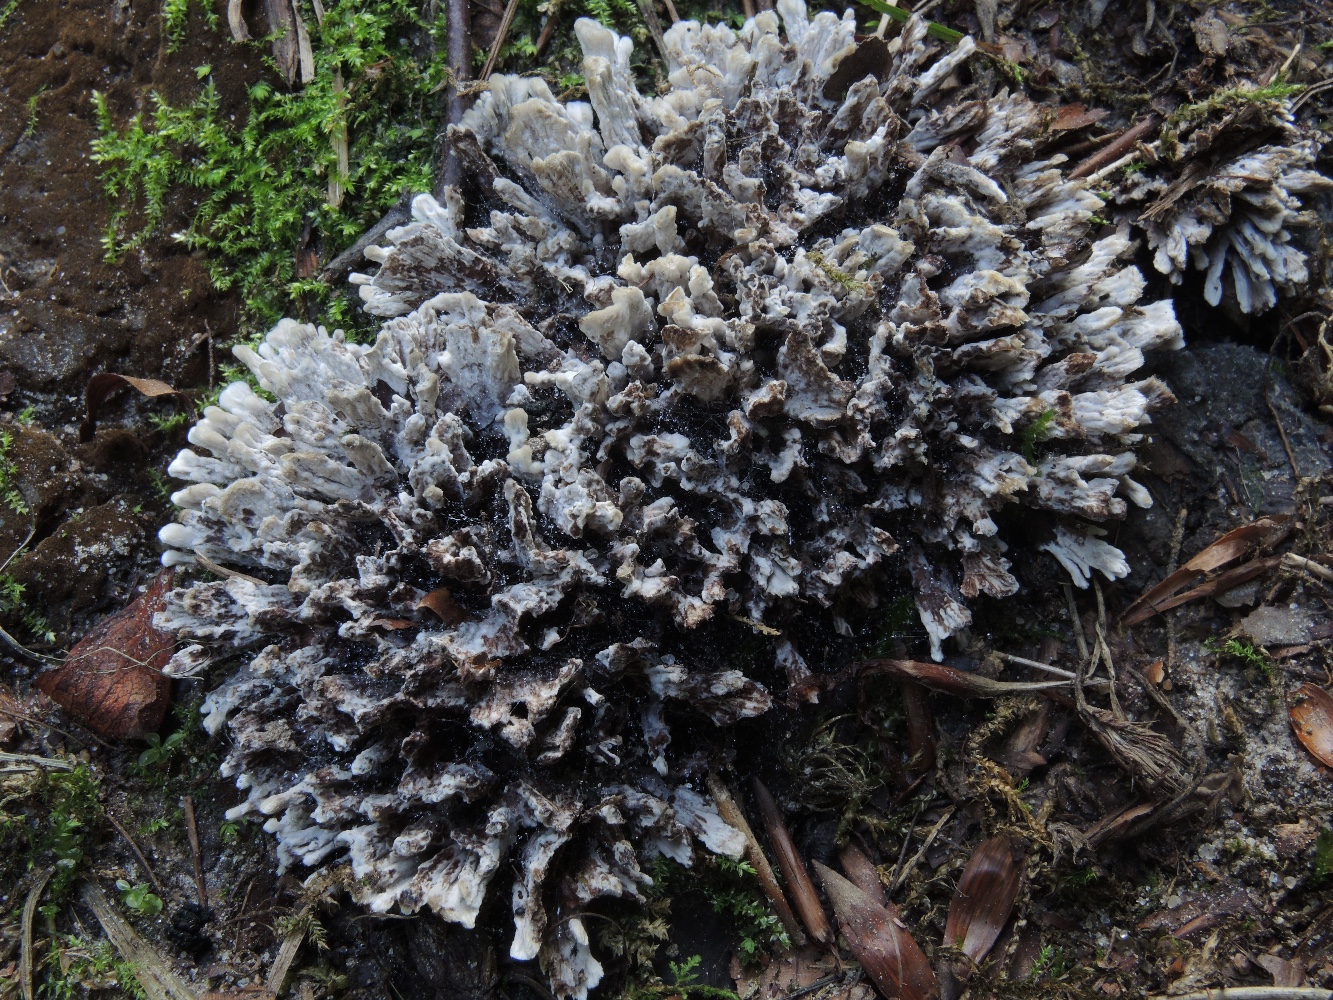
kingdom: Fungi
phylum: Basidiomycota
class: Agaricomycetes
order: Thelephorales
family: Thelephoraceae
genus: Thelephora
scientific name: Thelephora anthocephala
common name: busk-frynsesvamp
